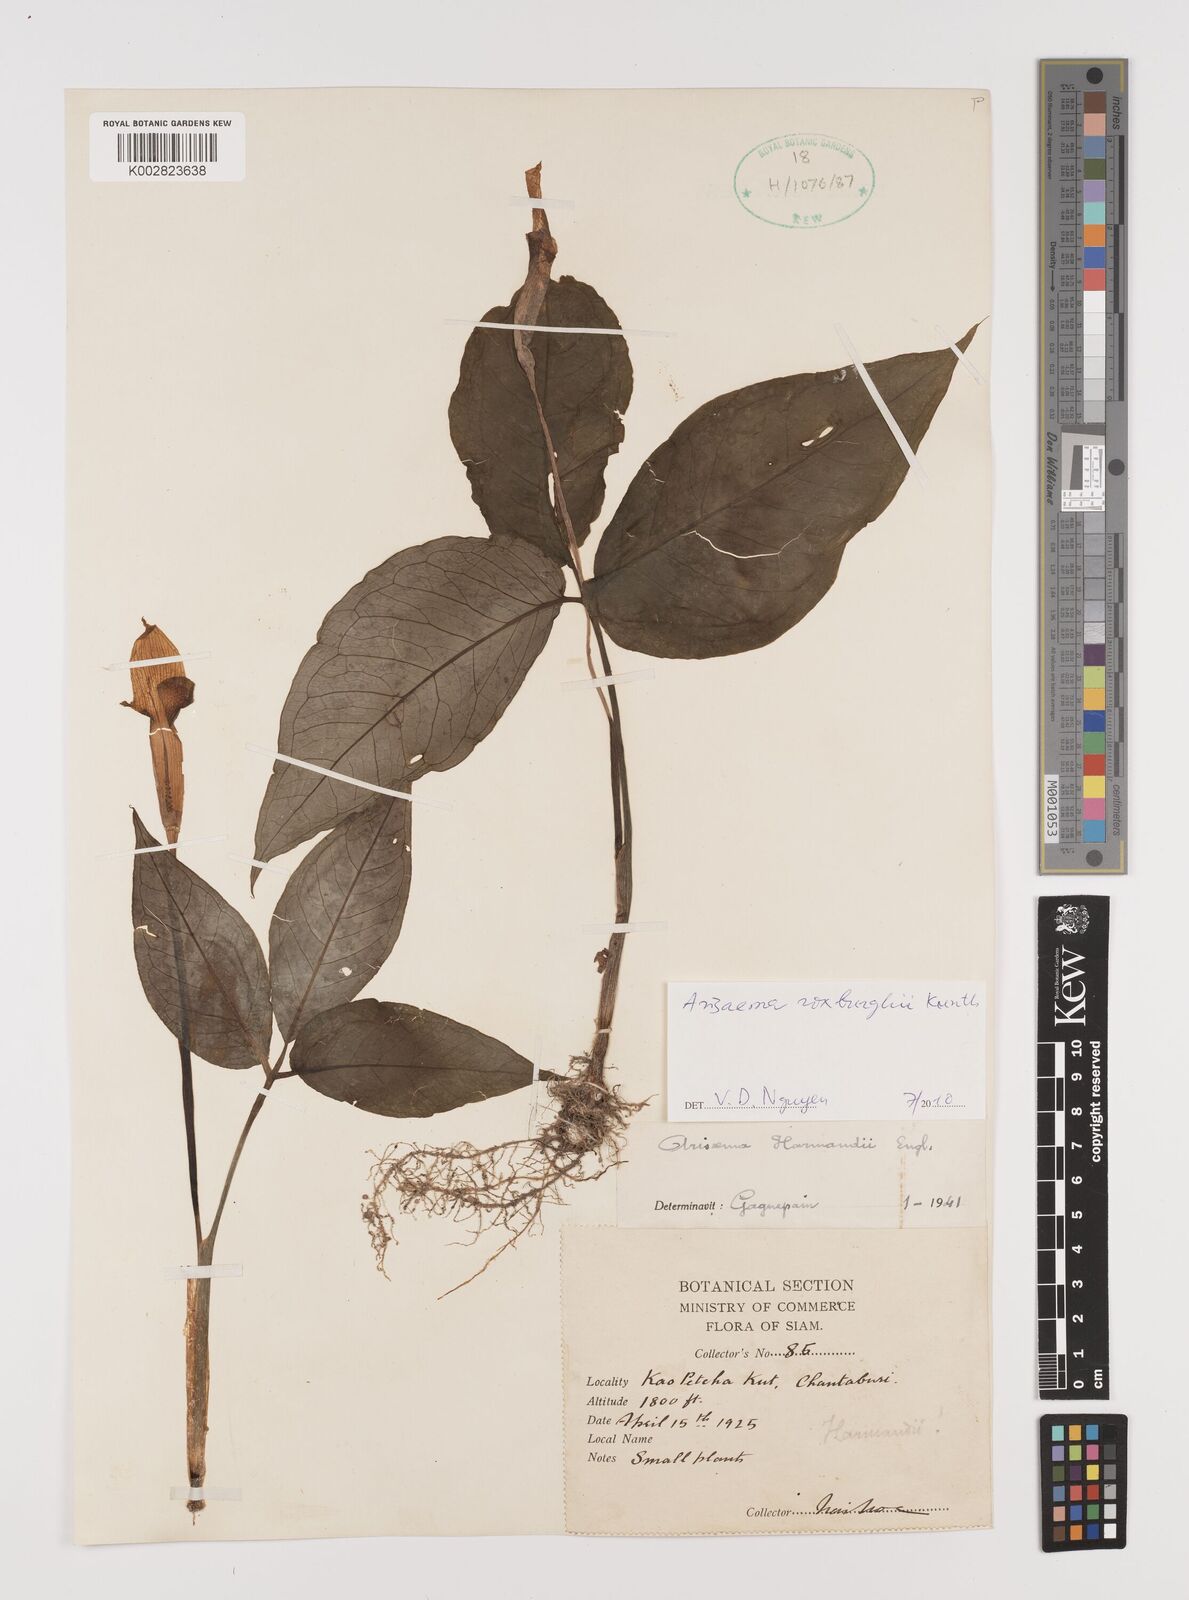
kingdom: Plantae
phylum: Tracheophyta
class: Liliopsida
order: Alismatales
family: Araceae
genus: Arisaema
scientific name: Arisaema roxburghii
